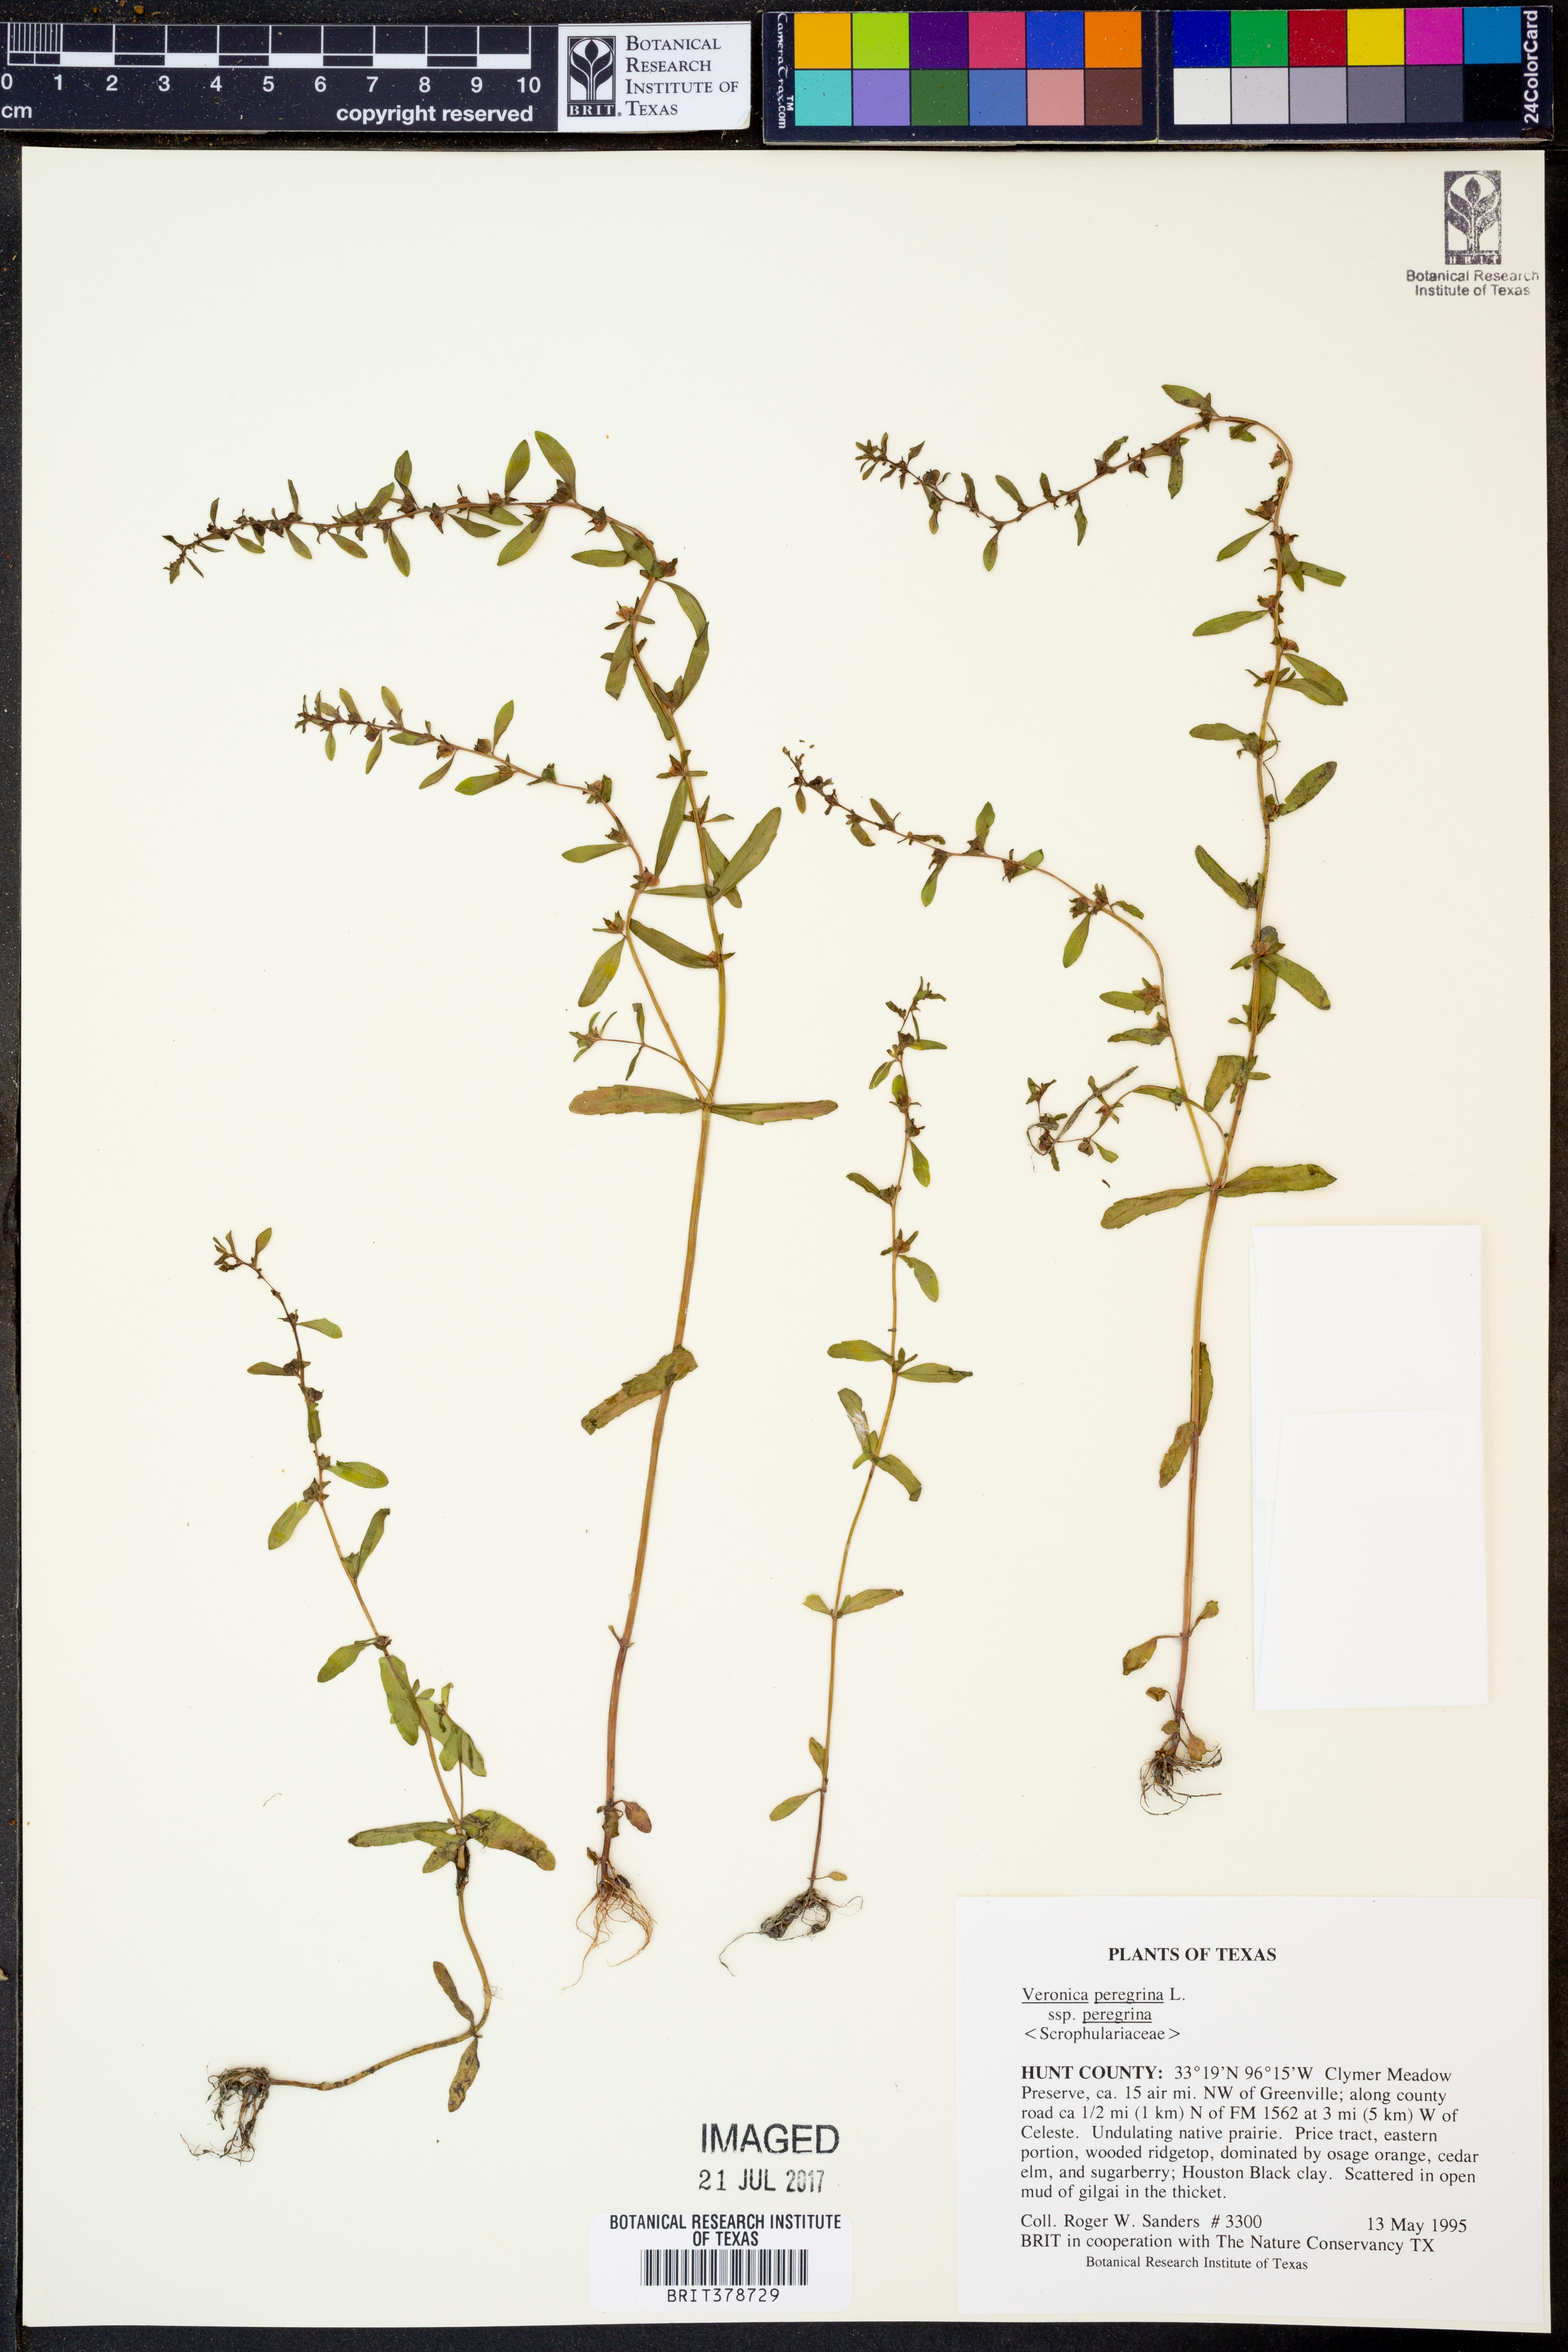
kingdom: Plantae
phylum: Tracheophyta
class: Magnoliopsida
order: Lamiales
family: Plantaginaceae
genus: Veronica
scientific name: Veronica peregrina
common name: Neckweed
